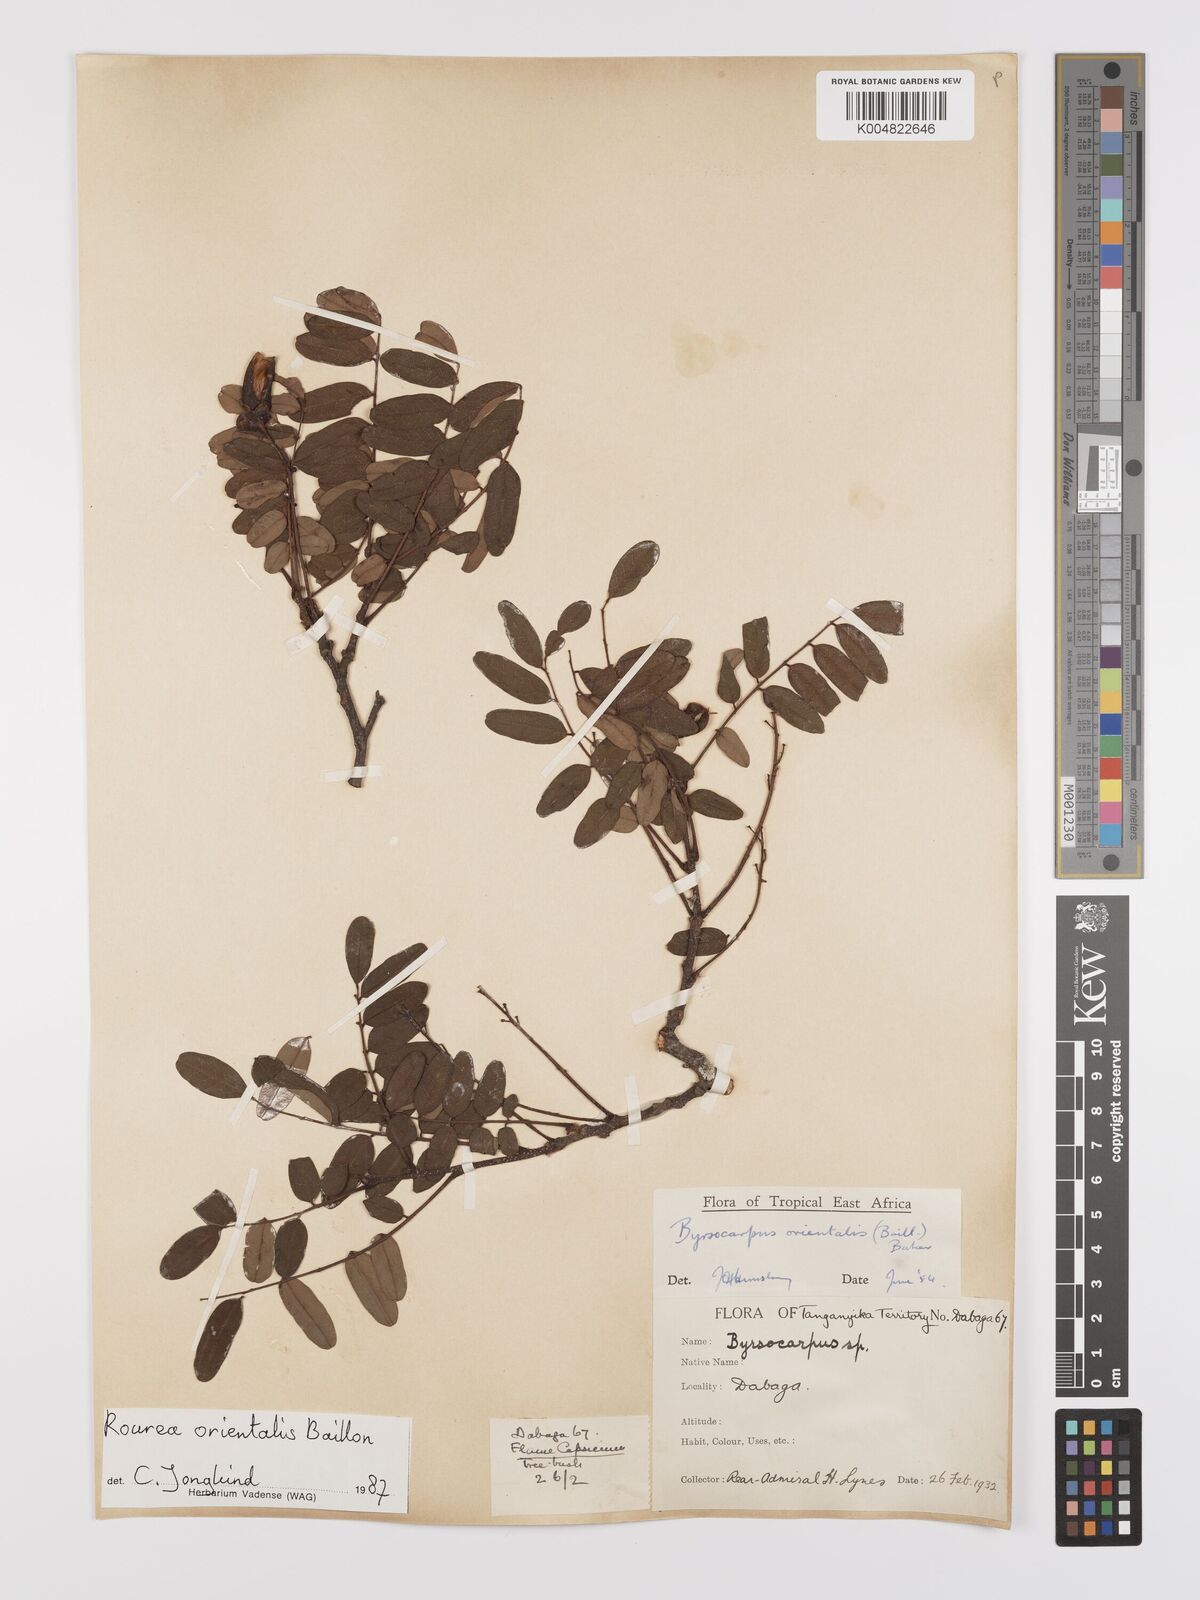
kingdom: Plantae
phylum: Tracheophyta
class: Magnoliopsida
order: Oxalidales
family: Connaraceae
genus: Rourea
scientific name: Rourea orientalis
